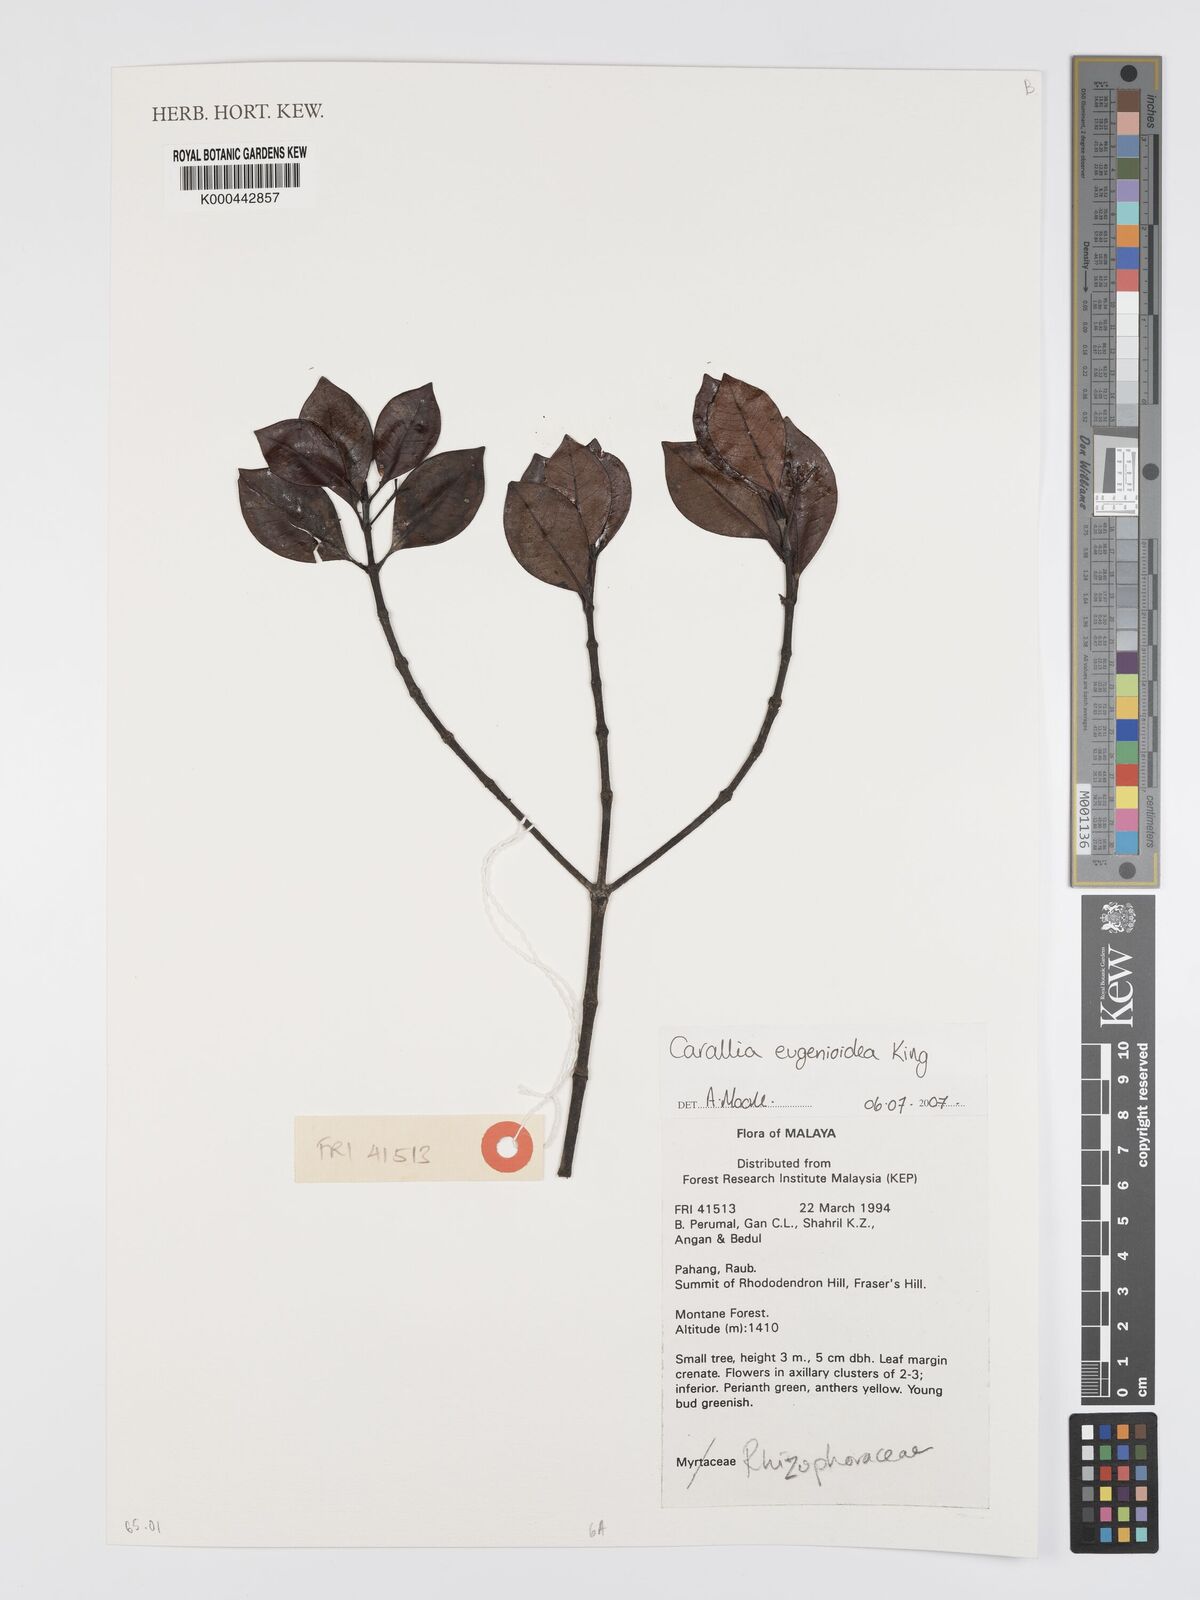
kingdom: Plantae
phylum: Tracheophyta
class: Magnoliopsida
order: Malpighiales
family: Rhizophoraceae
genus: Carallia
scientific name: Carallia eugenioidea
